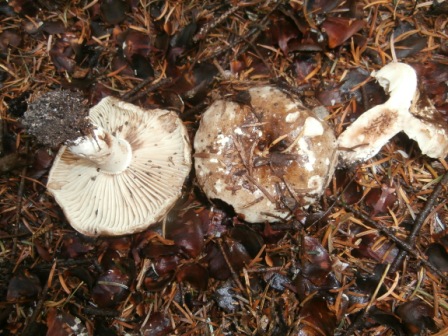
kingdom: Fungi
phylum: Basidiomycota
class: Agaricomycetes
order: Russulales
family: Russulaceae
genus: Russula
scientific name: Russula adusta
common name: sværtende skørhat
